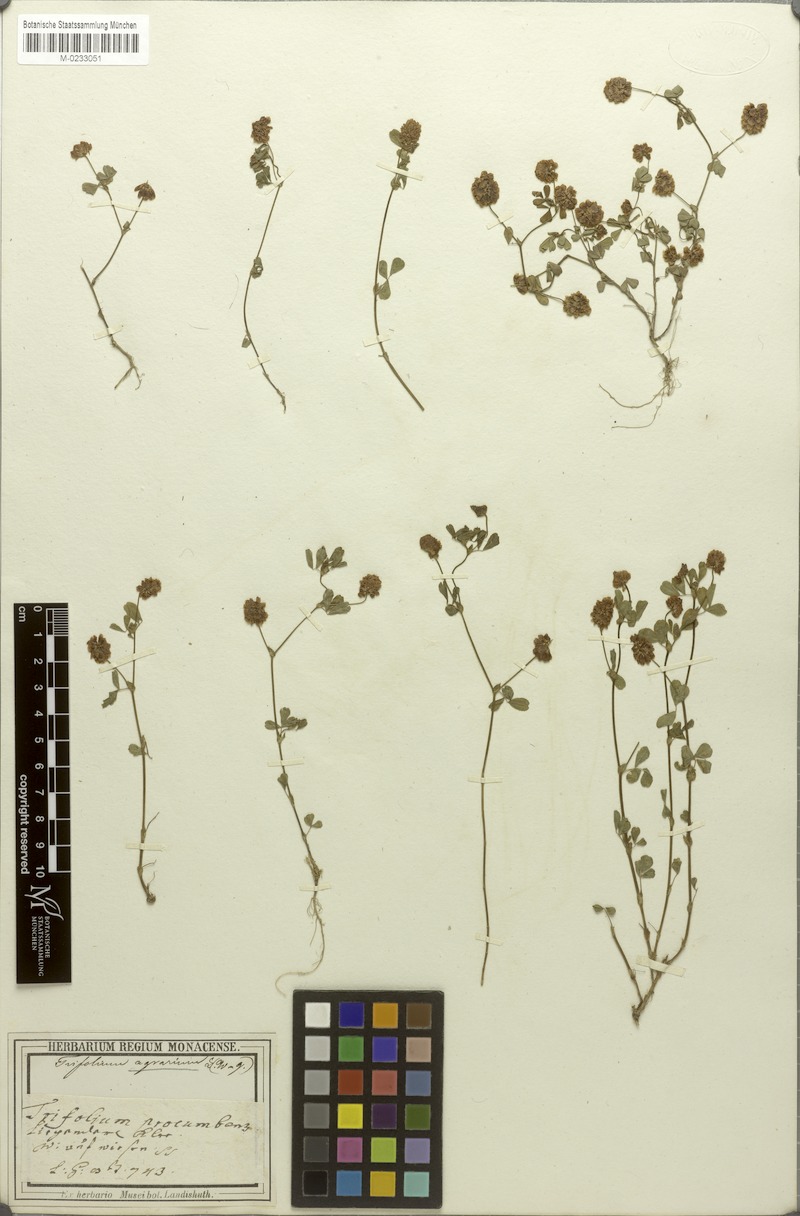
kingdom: Plantae
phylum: Tracheophyta
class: Magnoliopsida
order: Fabales
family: Fabaceae
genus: Trifolium
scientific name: Trifolium campestre
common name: Field clover
